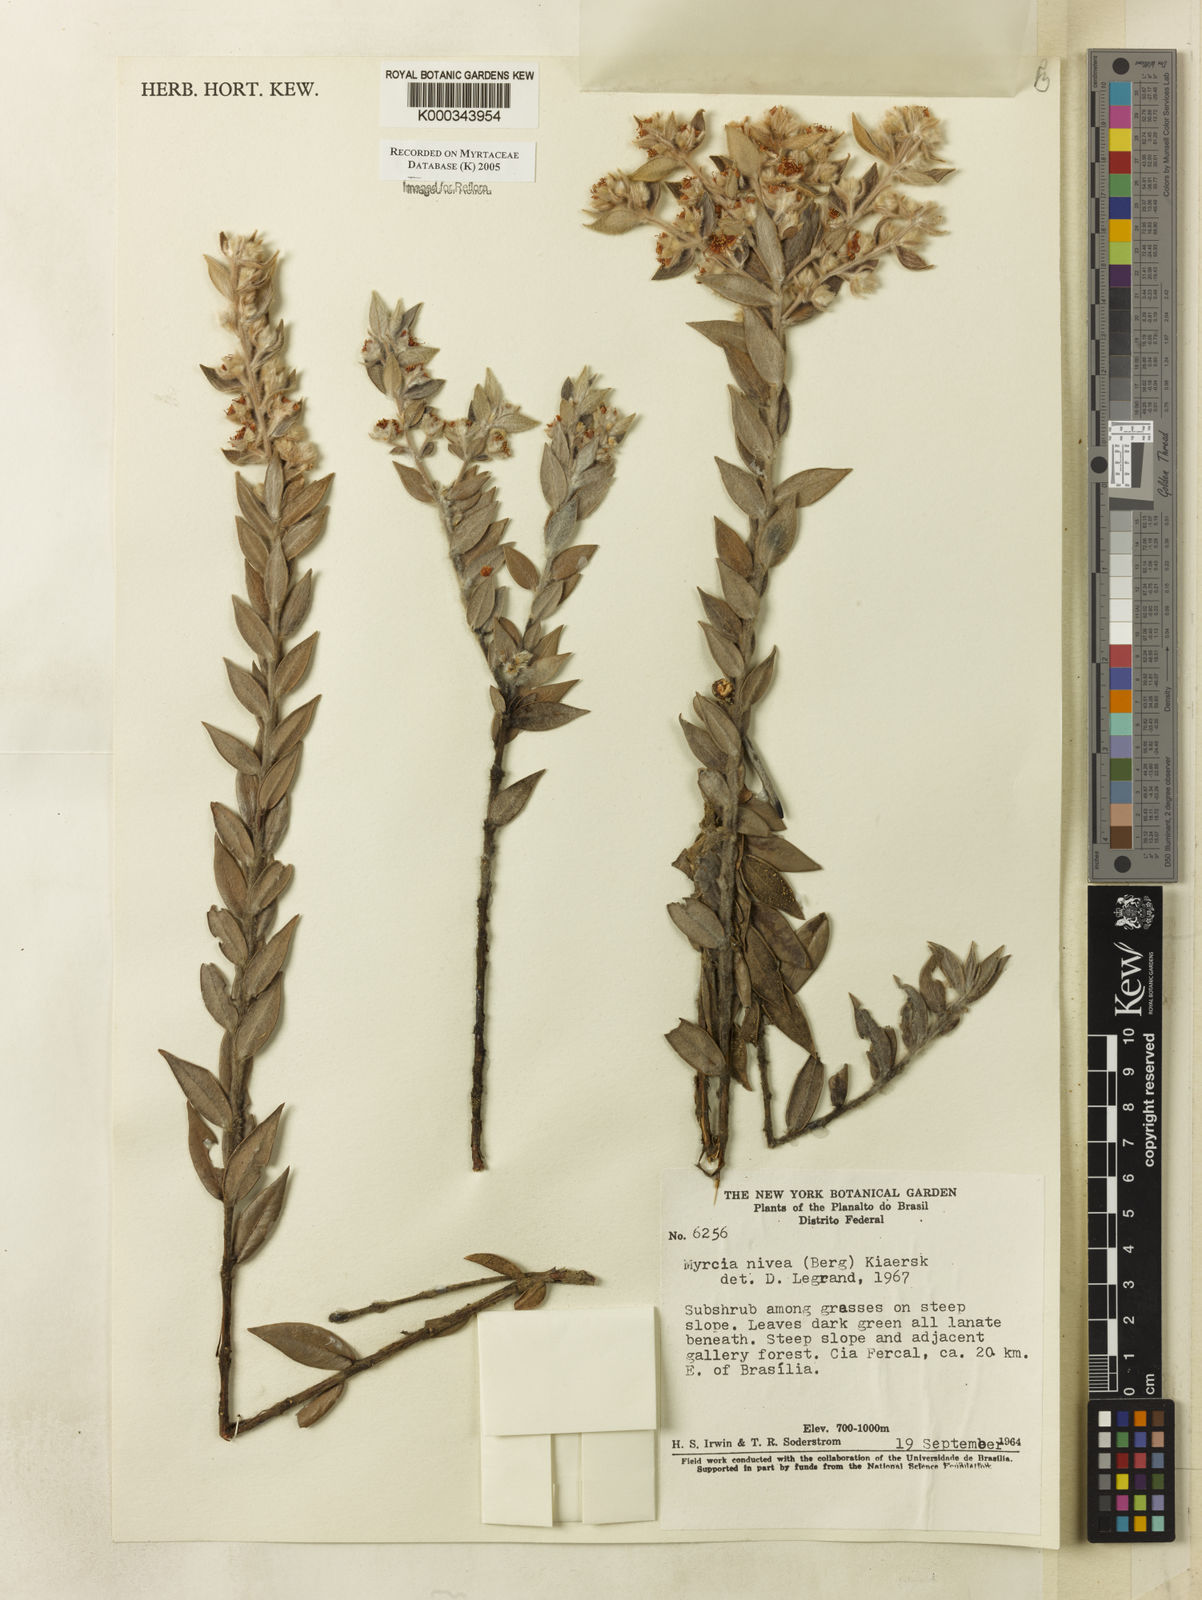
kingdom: Plantae
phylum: Tracheophyta
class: Magnoliopsida
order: Myrtales
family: Myrtaceae
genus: Myrcia
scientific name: Myrcia nivea
